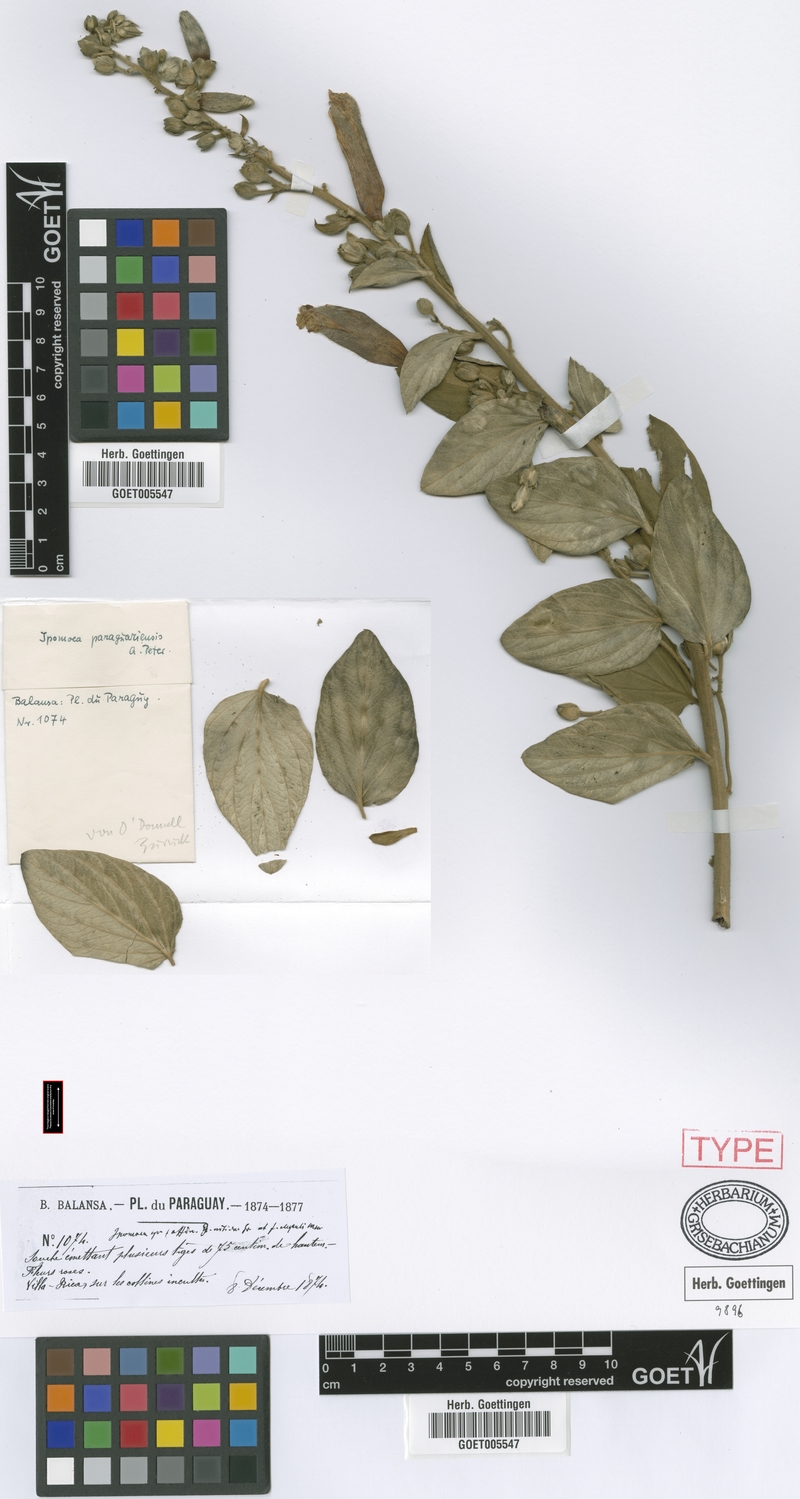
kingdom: Plantae
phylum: Tracheophyta
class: Magnoliopsida
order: Solanales
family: Convolvulaceae
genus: Ipomoea
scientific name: Ipomoea paraguariensis
